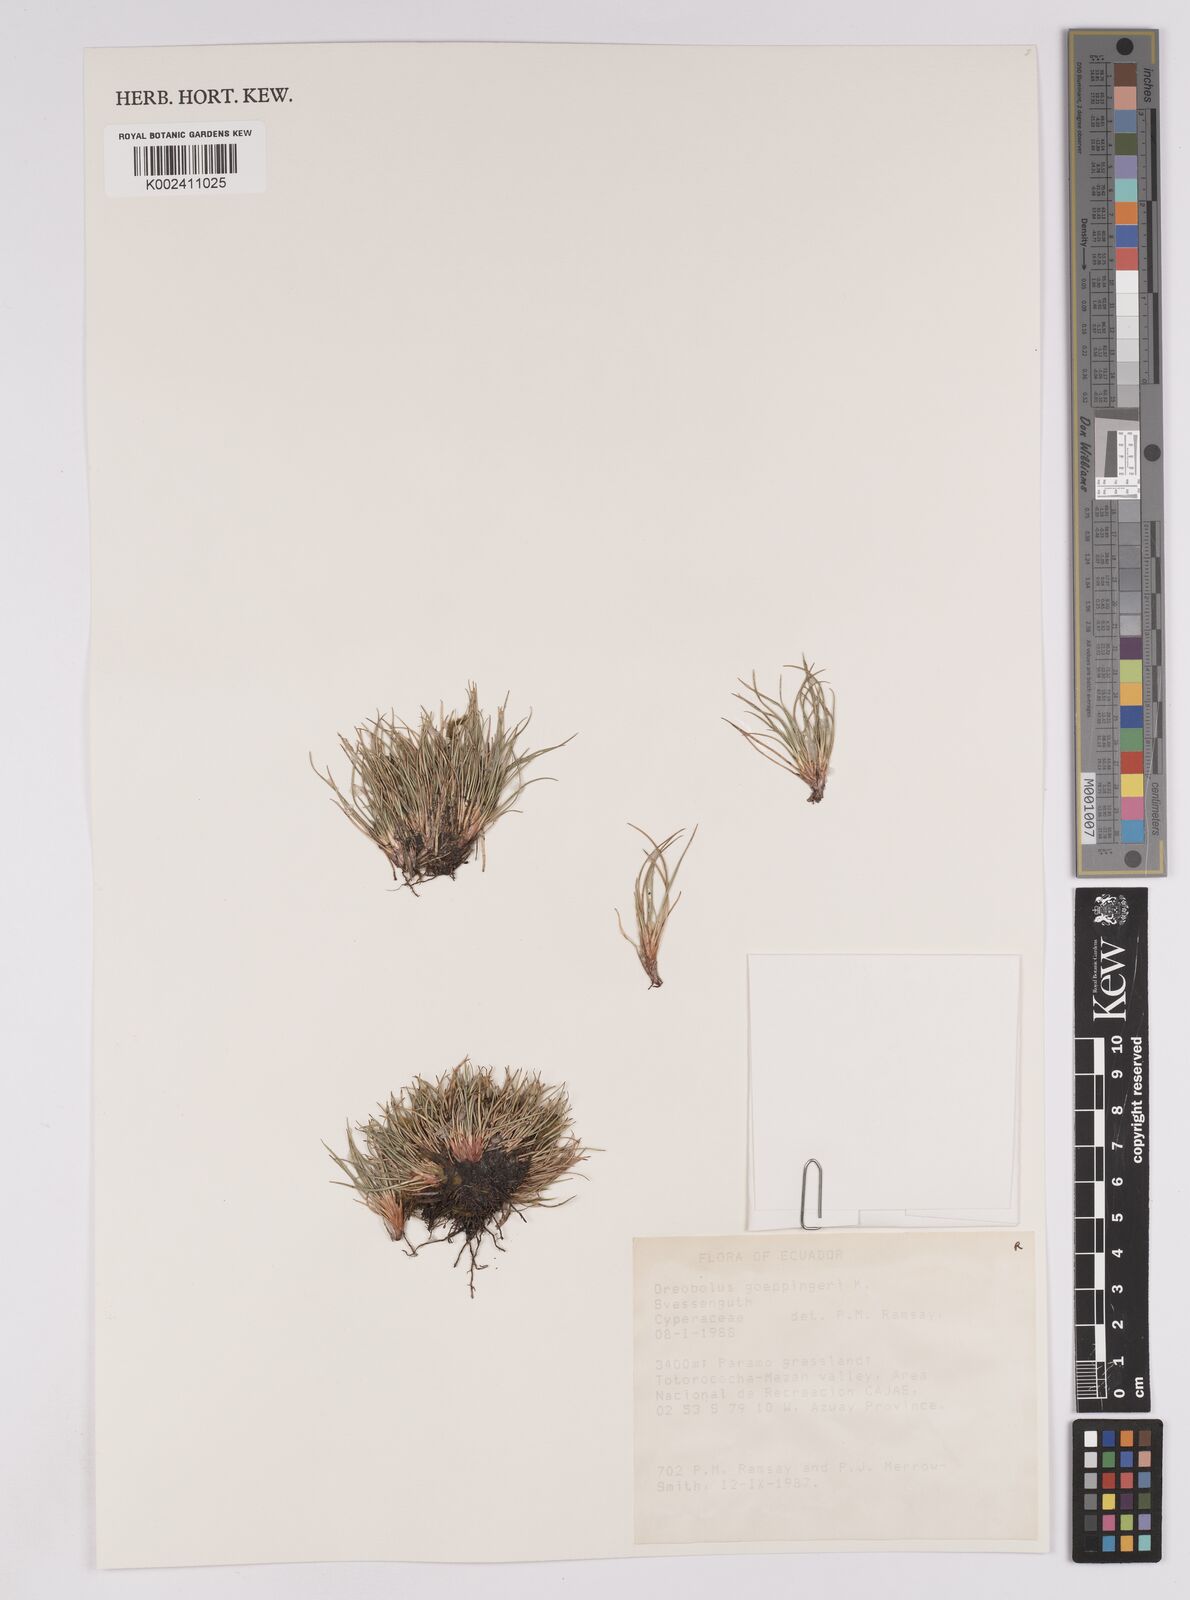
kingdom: Plantae
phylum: Tracheophyta
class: Liliopsida
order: Poales
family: Cyperaceae
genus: Oreobolus
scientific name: Oreobolus goeppingeri
